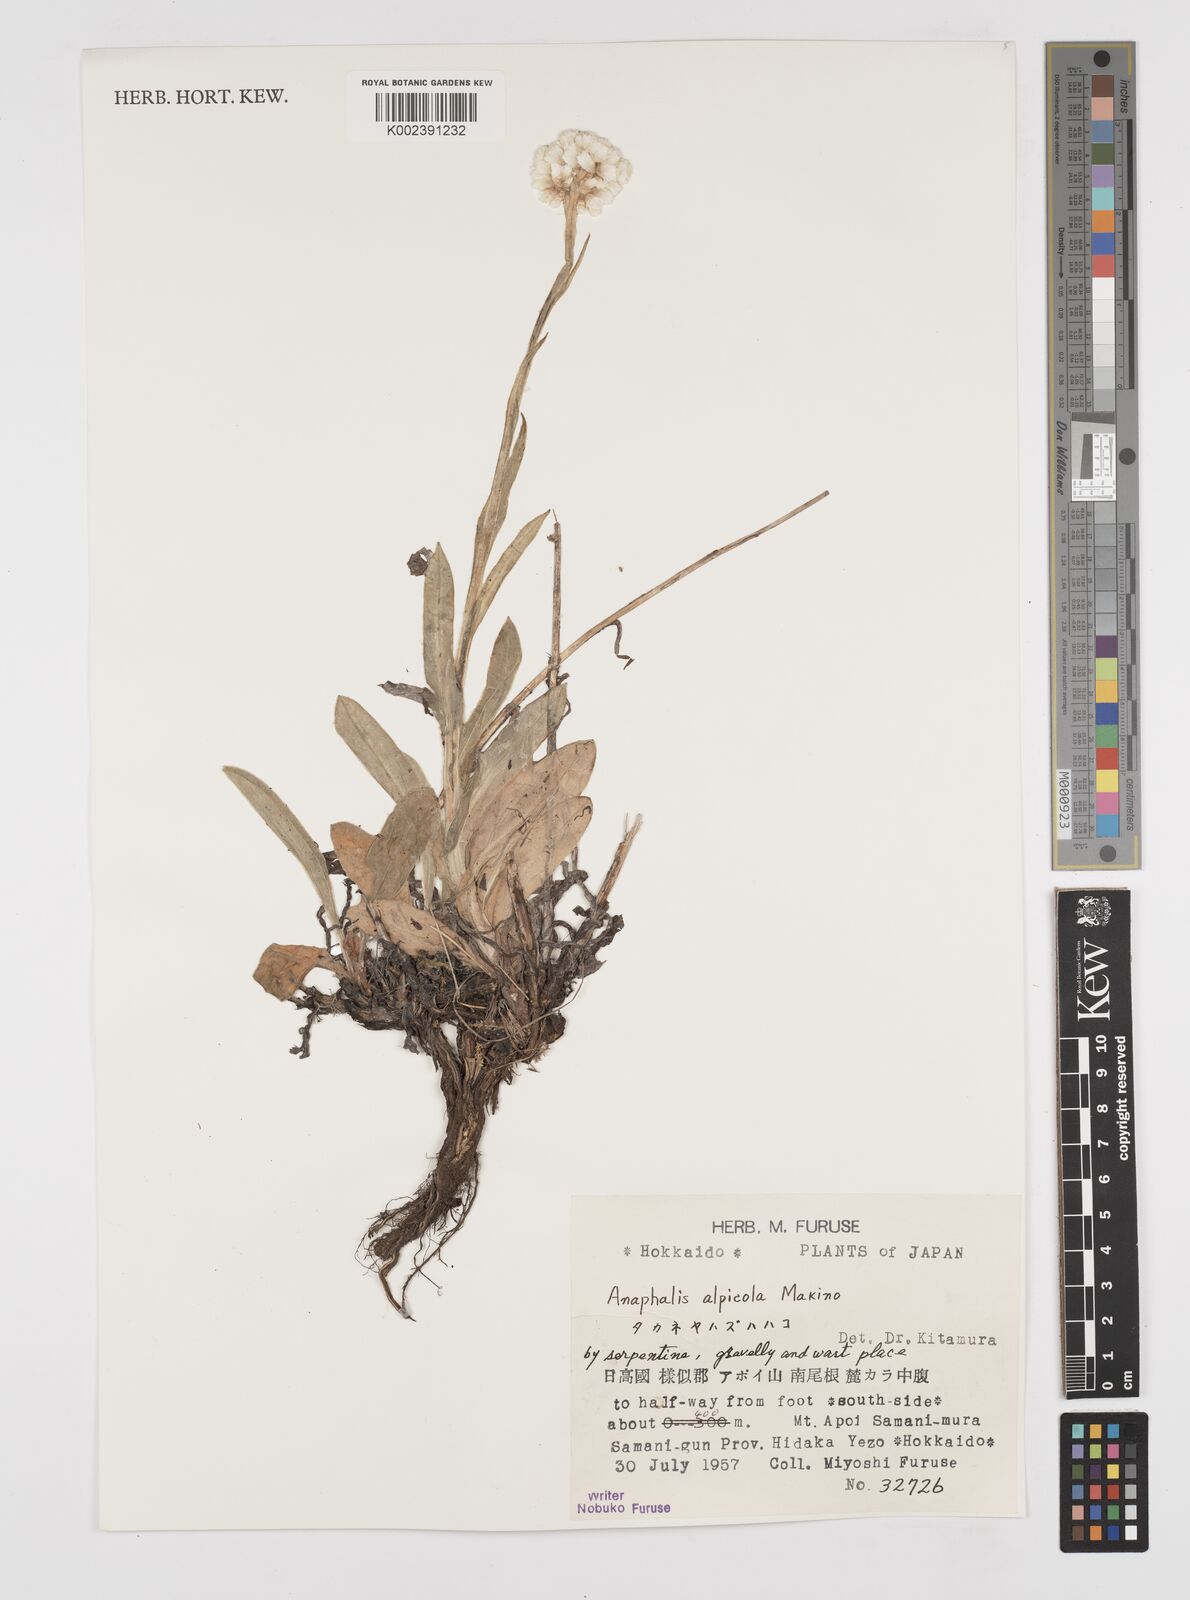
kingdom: Plantae
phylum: Tracheophyta
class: Magnoliopsida
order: Asterales
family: Asteraceae
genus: Anaphalis
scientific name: Anaphalis alpicola
